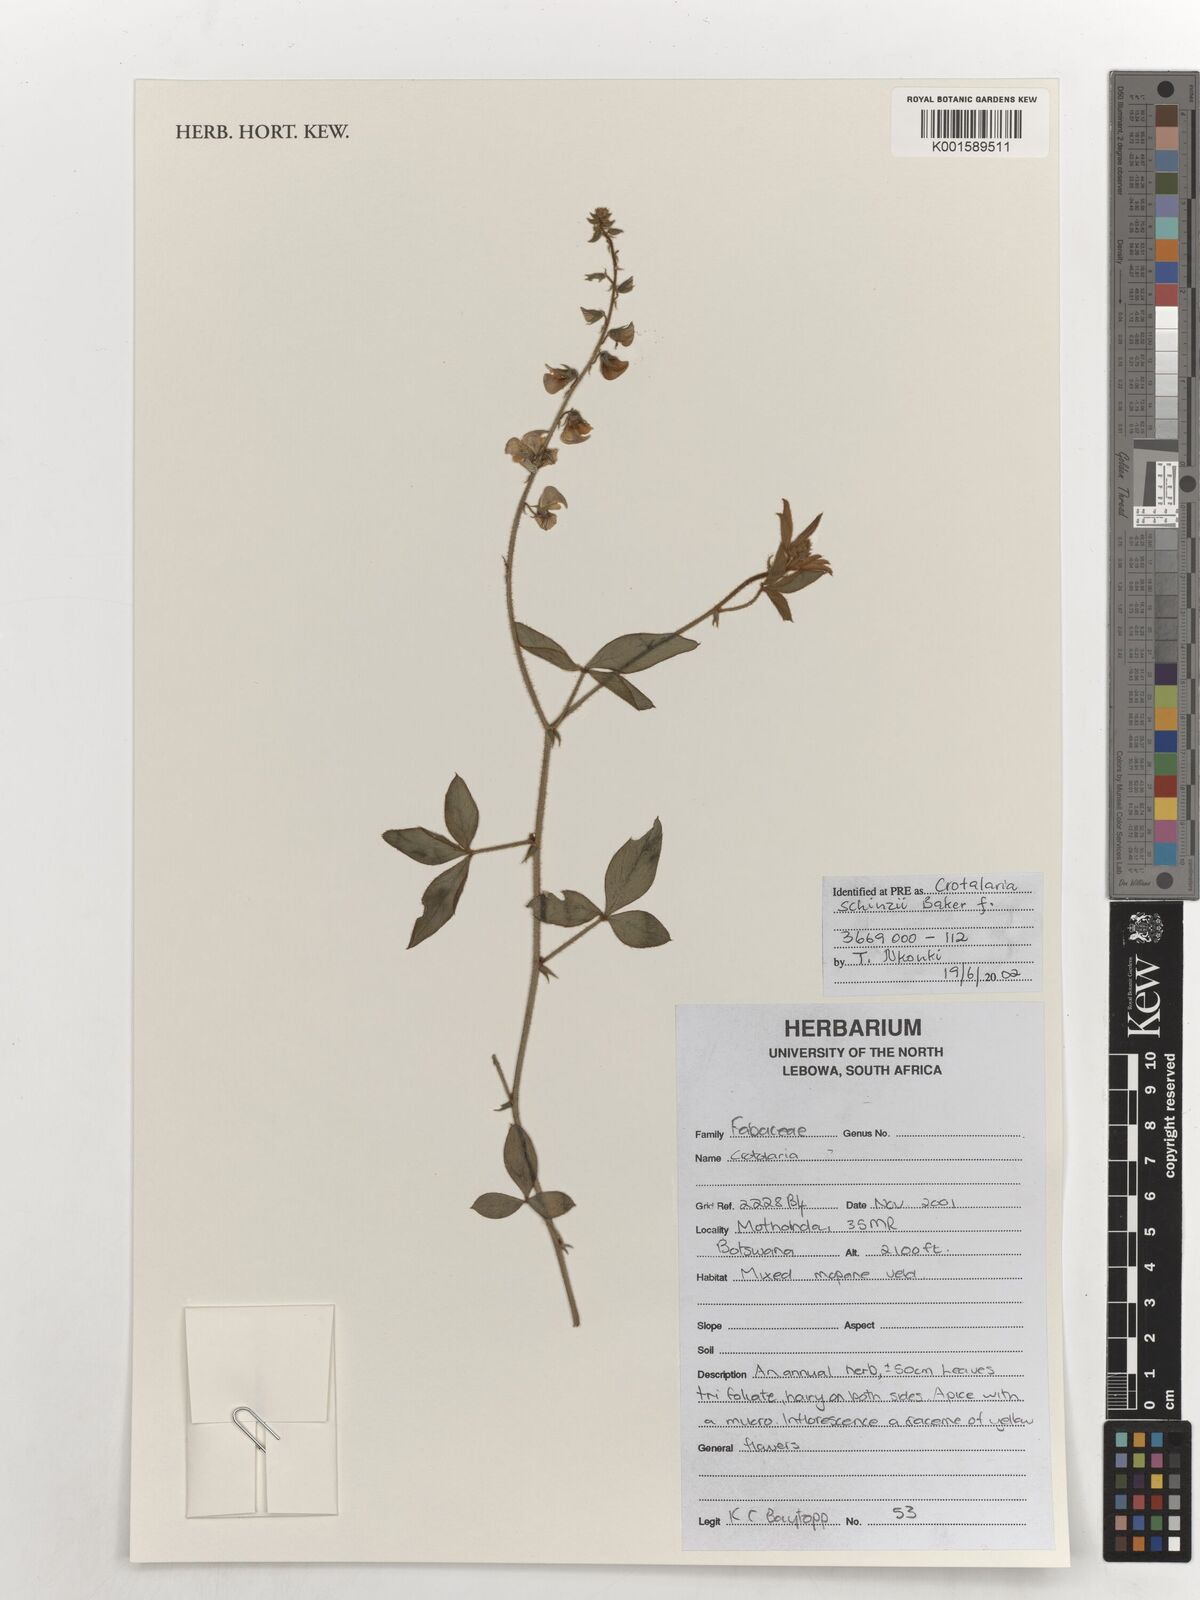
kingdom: Plantae
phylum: Tracheophyta
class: Magnoliopsida
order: Fabales
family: Fabaceae
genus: Crotalaria
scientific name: Crotalaria schinzii
